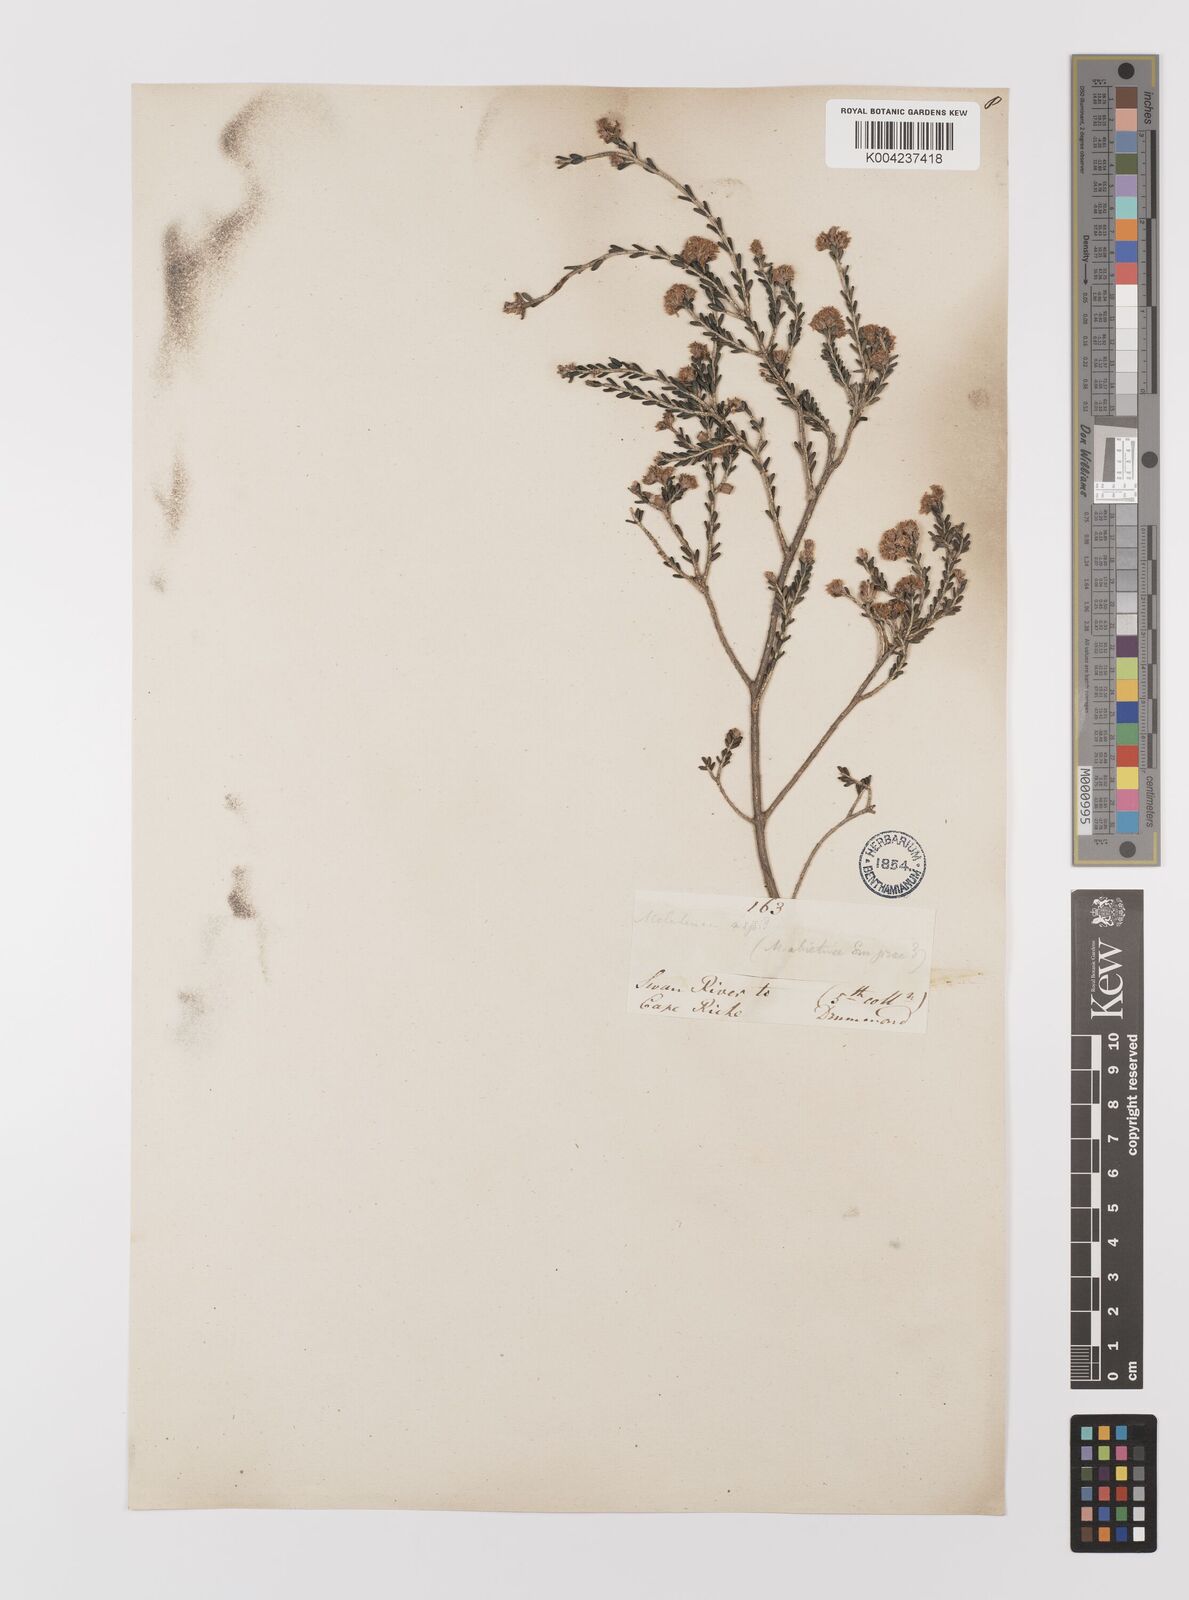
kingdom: Plantae
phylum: Tracheophyta
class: Magnoliopsida
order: Myrtales
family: Myrtaceae
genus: Melaleuca
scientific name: Melaleuca
